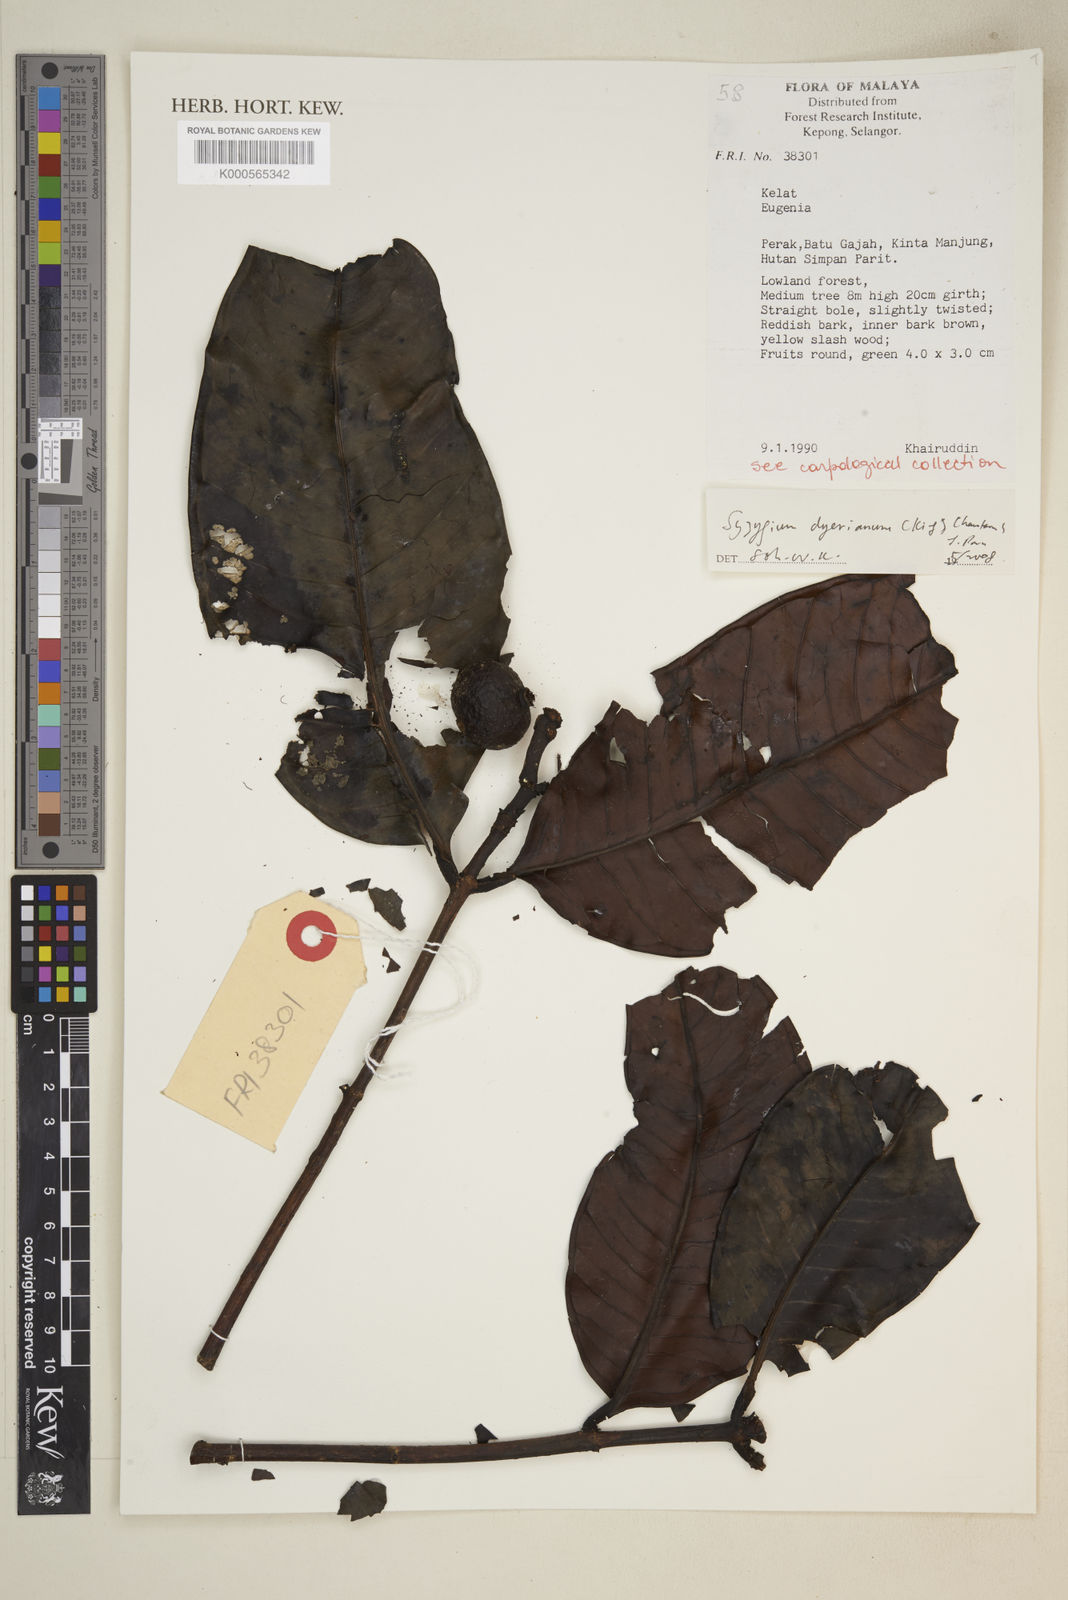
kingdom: Plantae
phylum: Tracheophyta
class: Magnoliopsida
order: Myrtales
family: Myrtaceae
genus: Syzygium
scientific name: Syzygium
